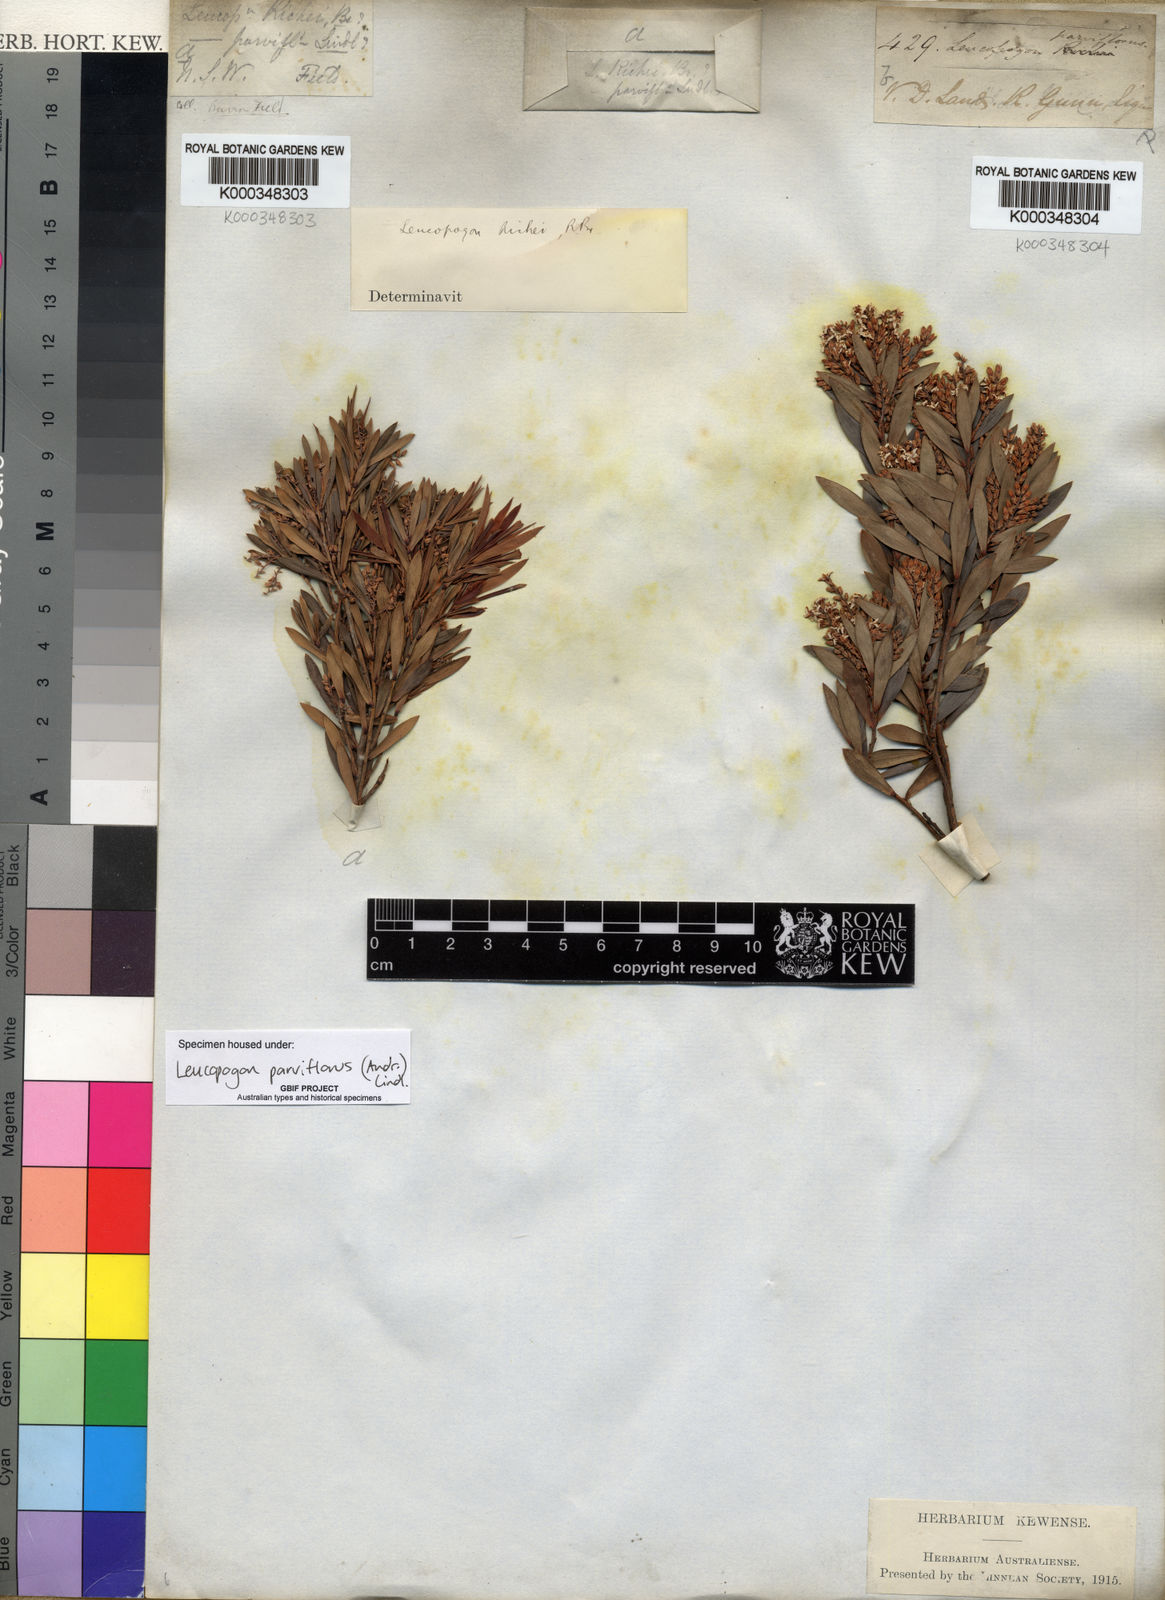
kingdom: Plantae
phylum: Tracheophyta
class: Magnoliopsida
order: Ericales
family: Ericaceae
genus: Leptecophylla
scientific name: Leptecophylla parvifolia
